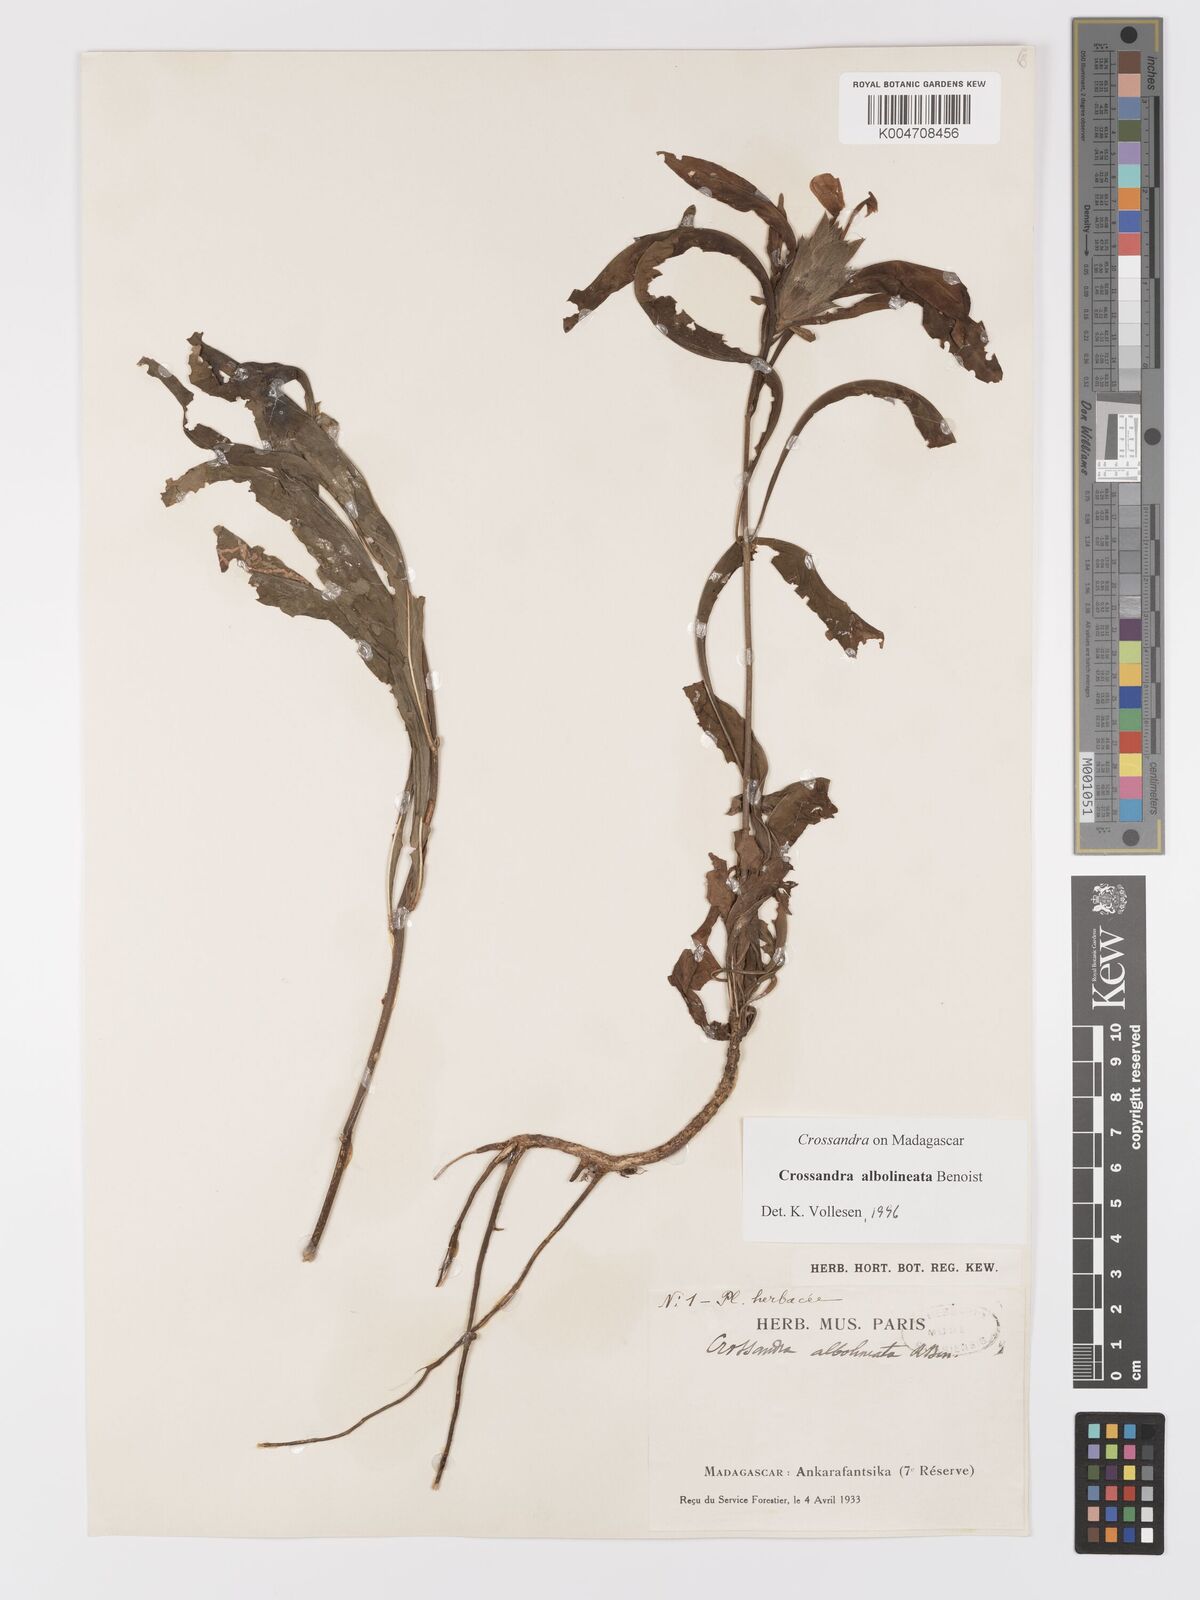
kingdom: Plantae
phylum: Tracheophyta
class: Magnoliopsida
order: Lamiales
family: Acanthaceae
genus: Crossandra
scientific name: Crossandra albolineata
